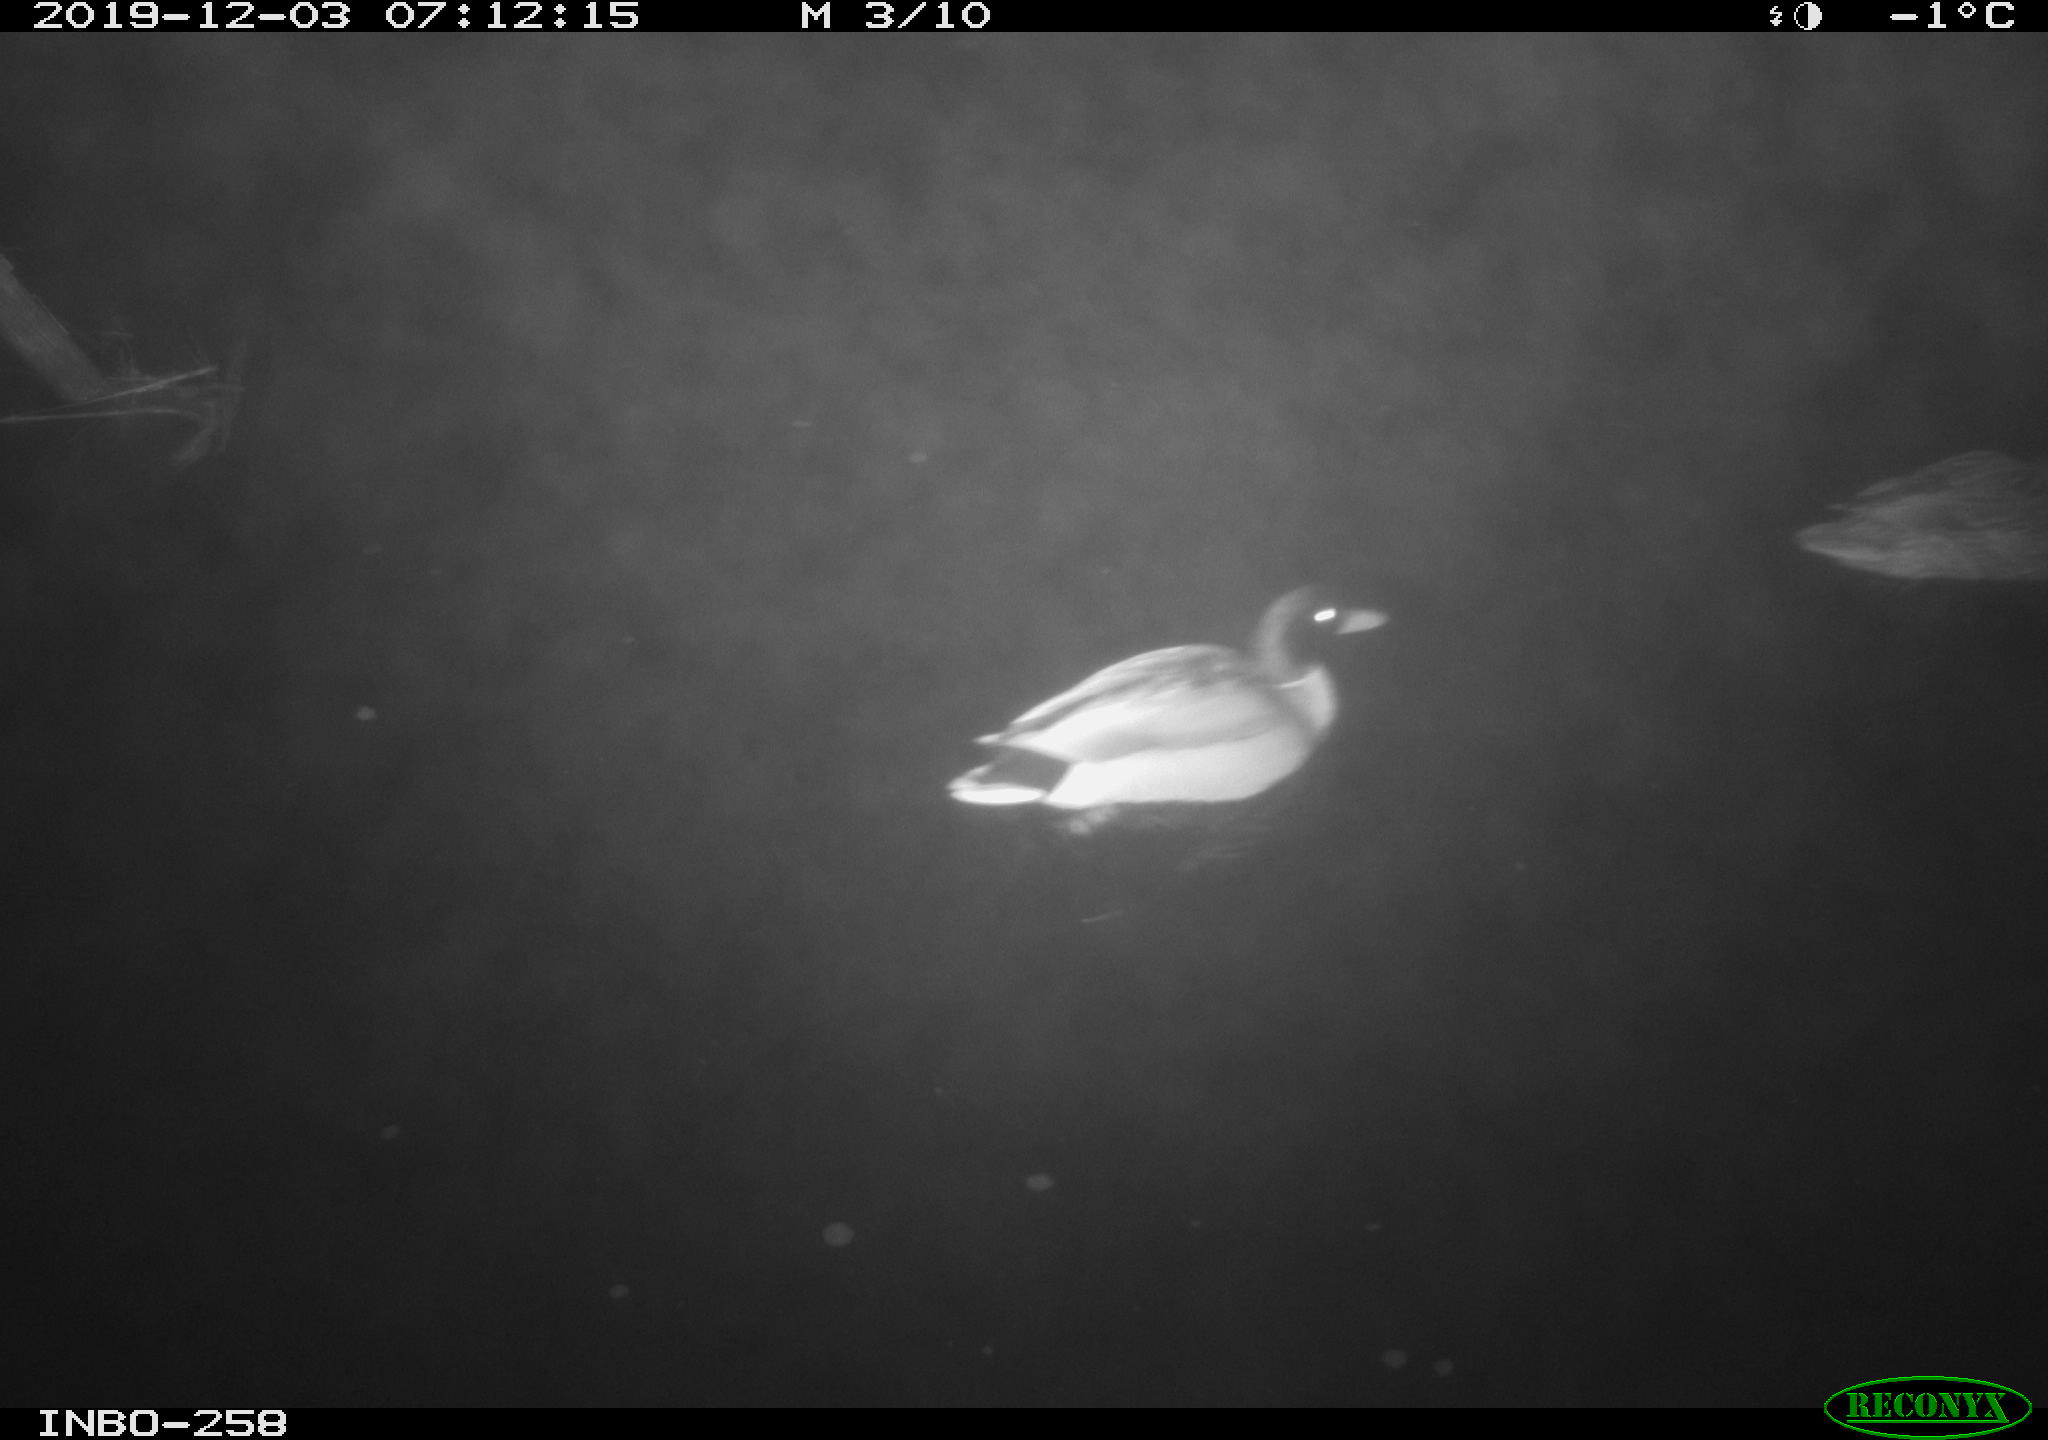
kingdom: Animalia
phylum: Chordata
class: Aves
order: Anseriformes
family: Anatidae
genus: Anas
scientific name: Anas platyrhynchos
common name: Mallard
